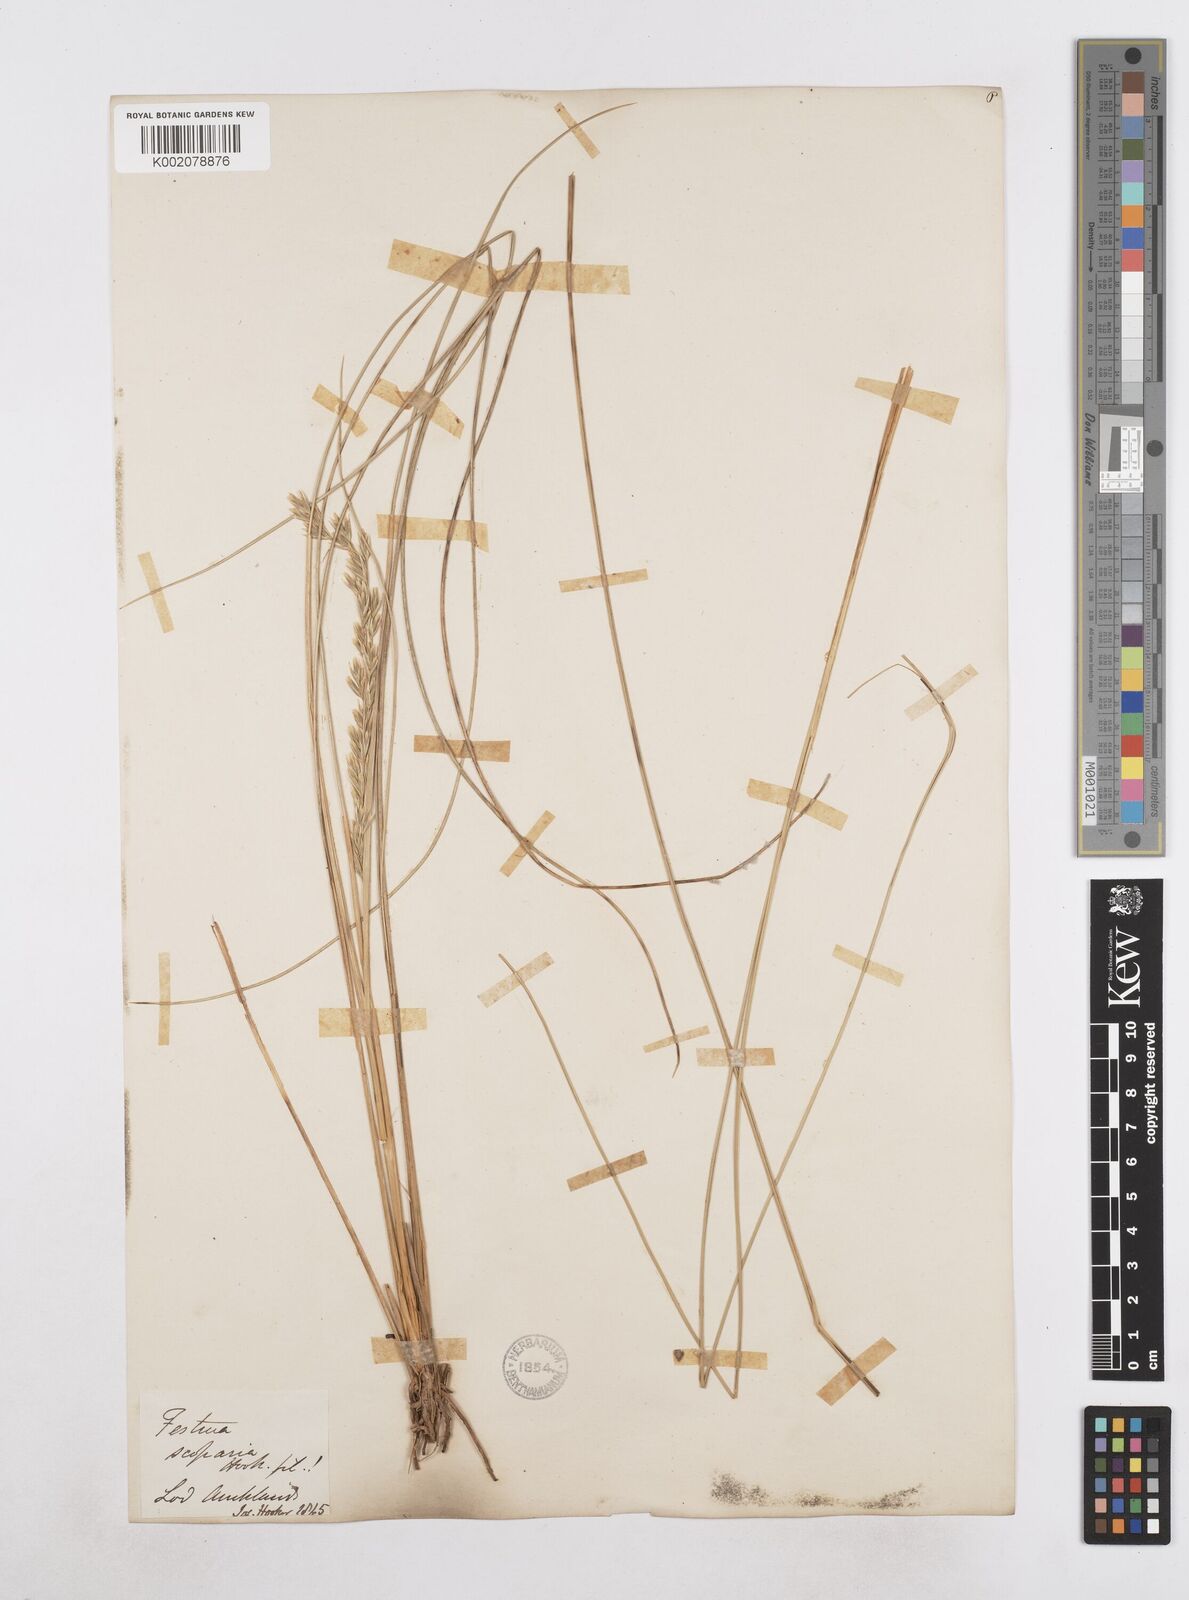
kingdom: Plantae
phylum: Tracheophyta
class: Liliopsida
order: Poales
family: Poaceae
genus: Poa
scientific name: Poa litorosa
